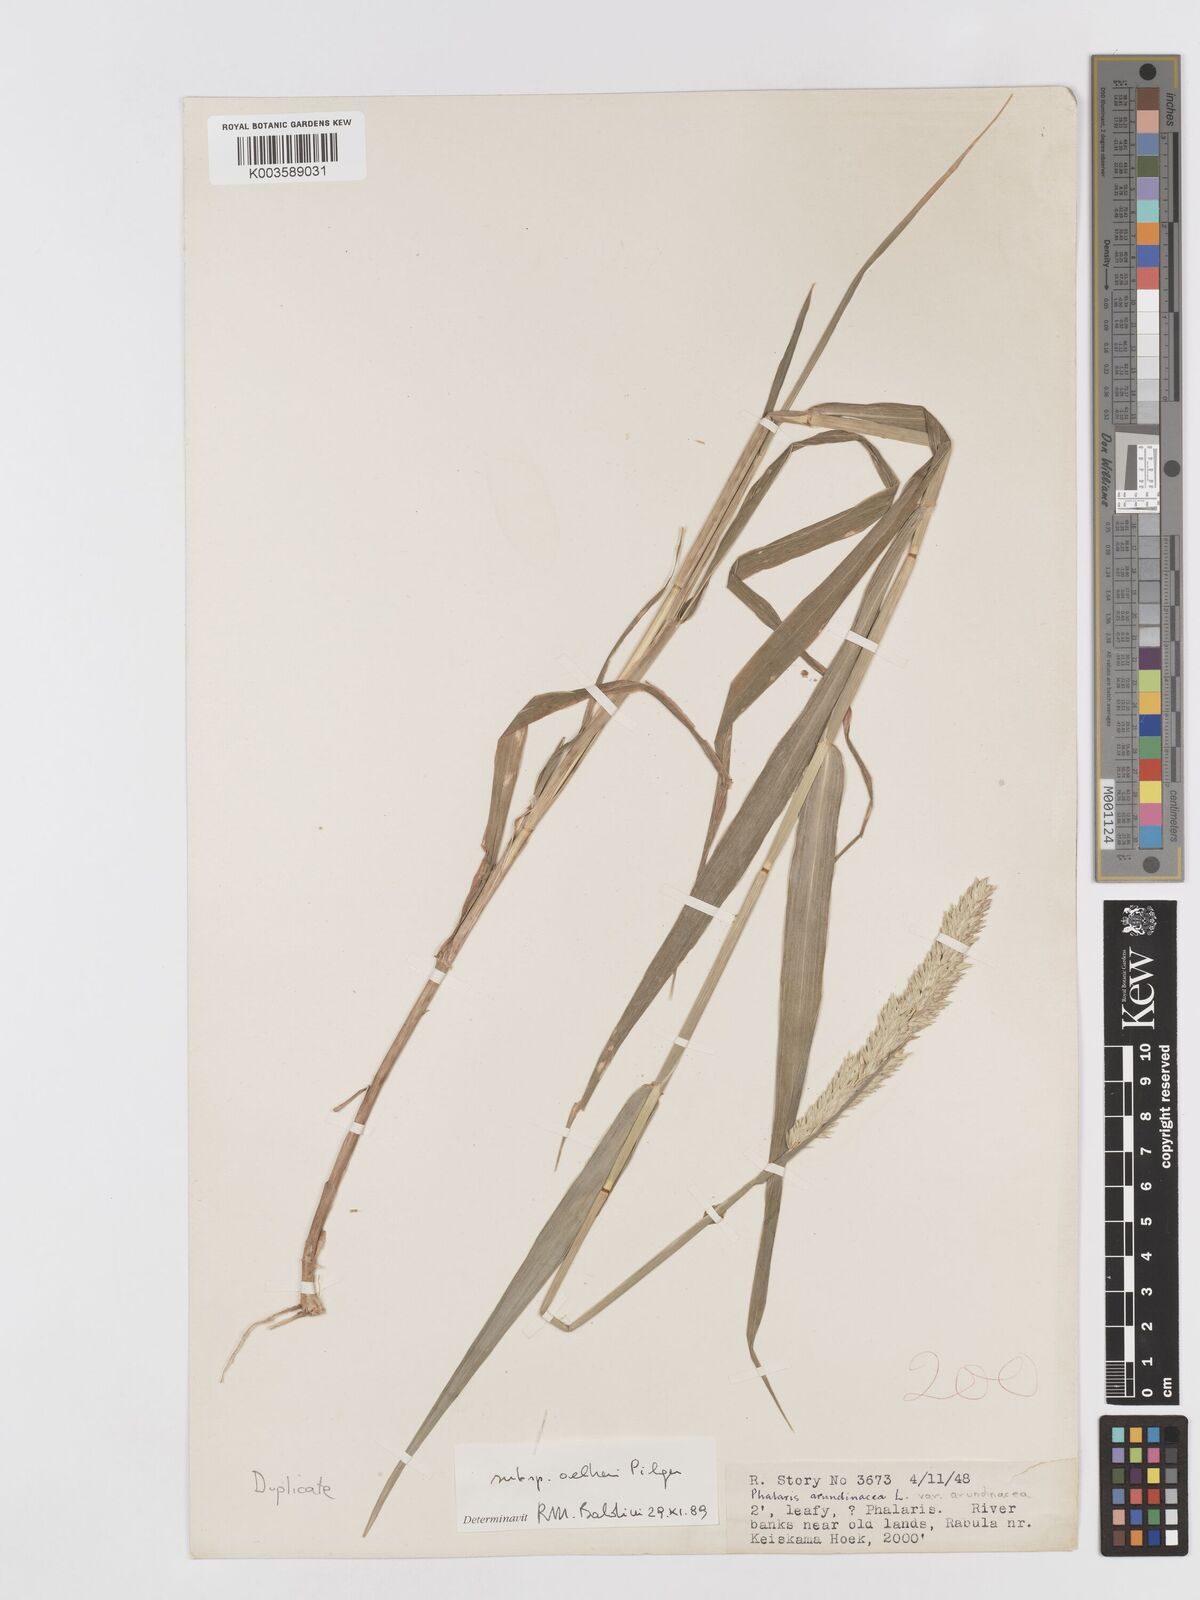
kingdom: Plantae
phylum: Tracheophyta
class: Liliopsida
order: Poales
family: Poaceae
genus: Phalaris
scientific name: Phalaris arundinacea
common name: Reed canary-grass
